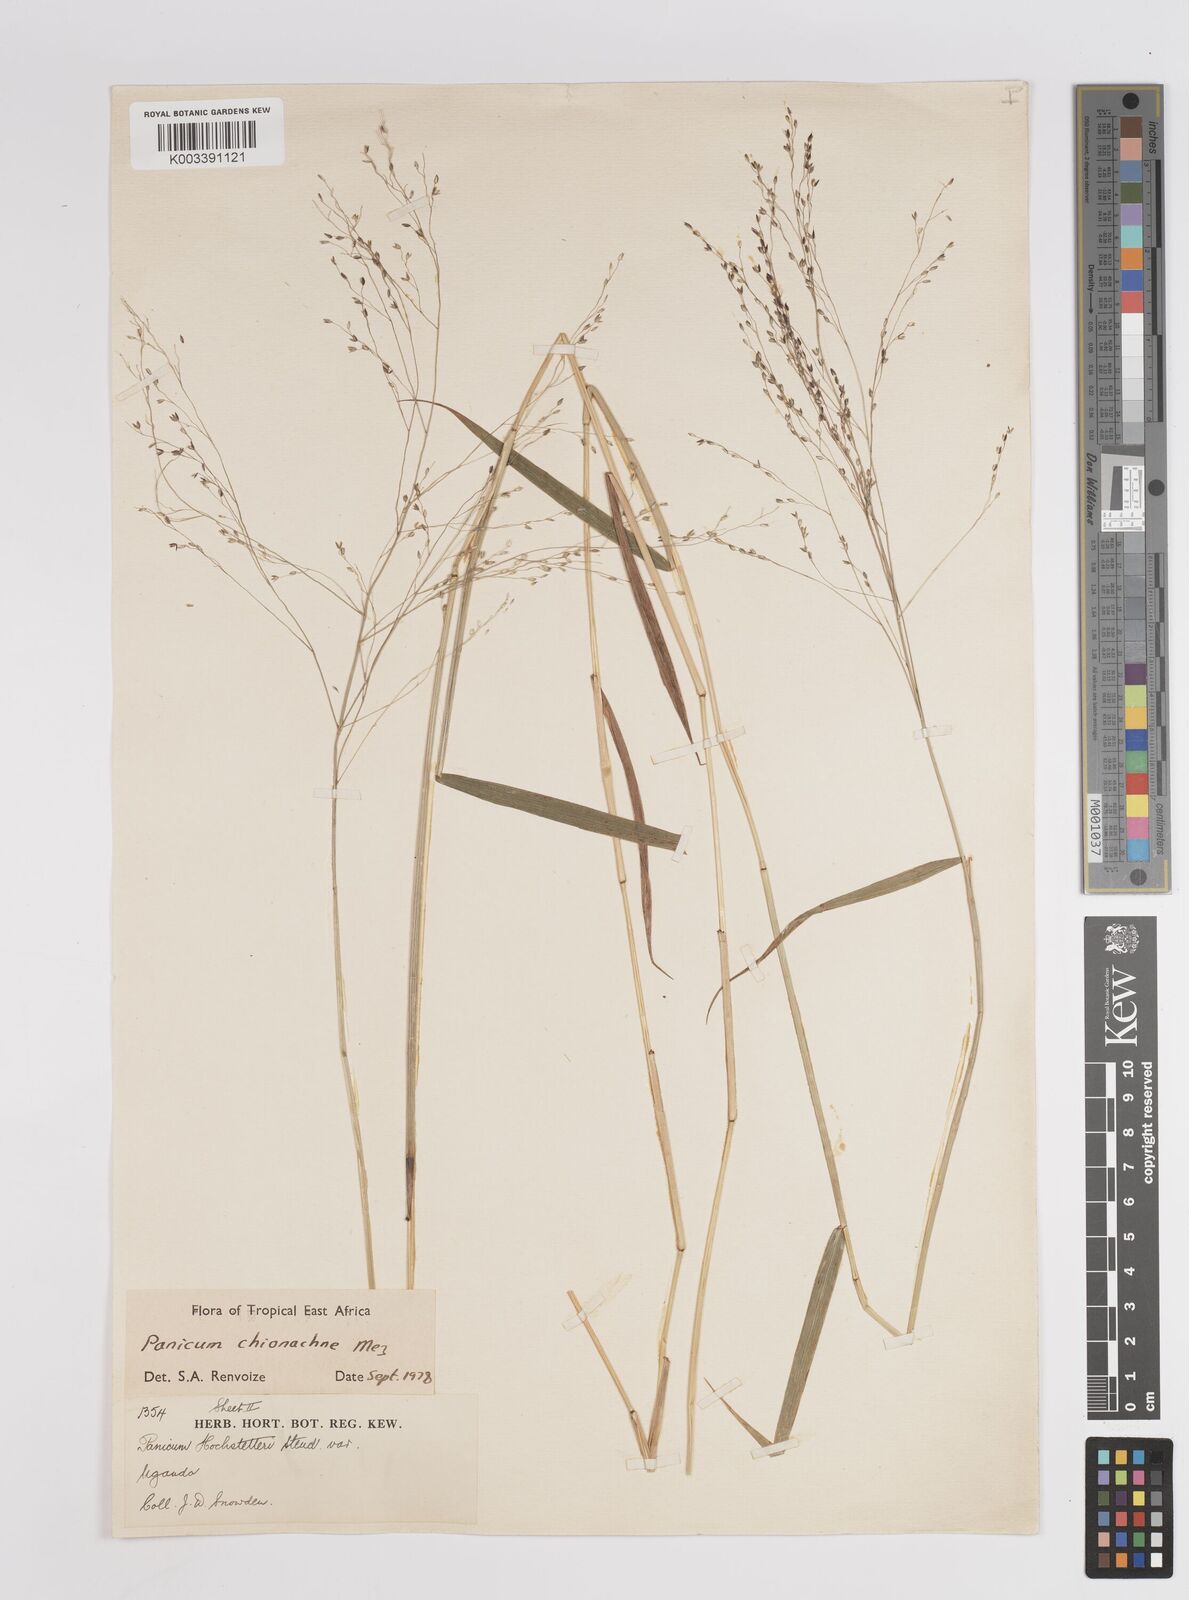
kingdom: Plantae
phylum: Tracheophyta
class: Liliopsida
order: Poales
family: Poaceae
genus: Panicum
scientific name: Panicum chionachne
